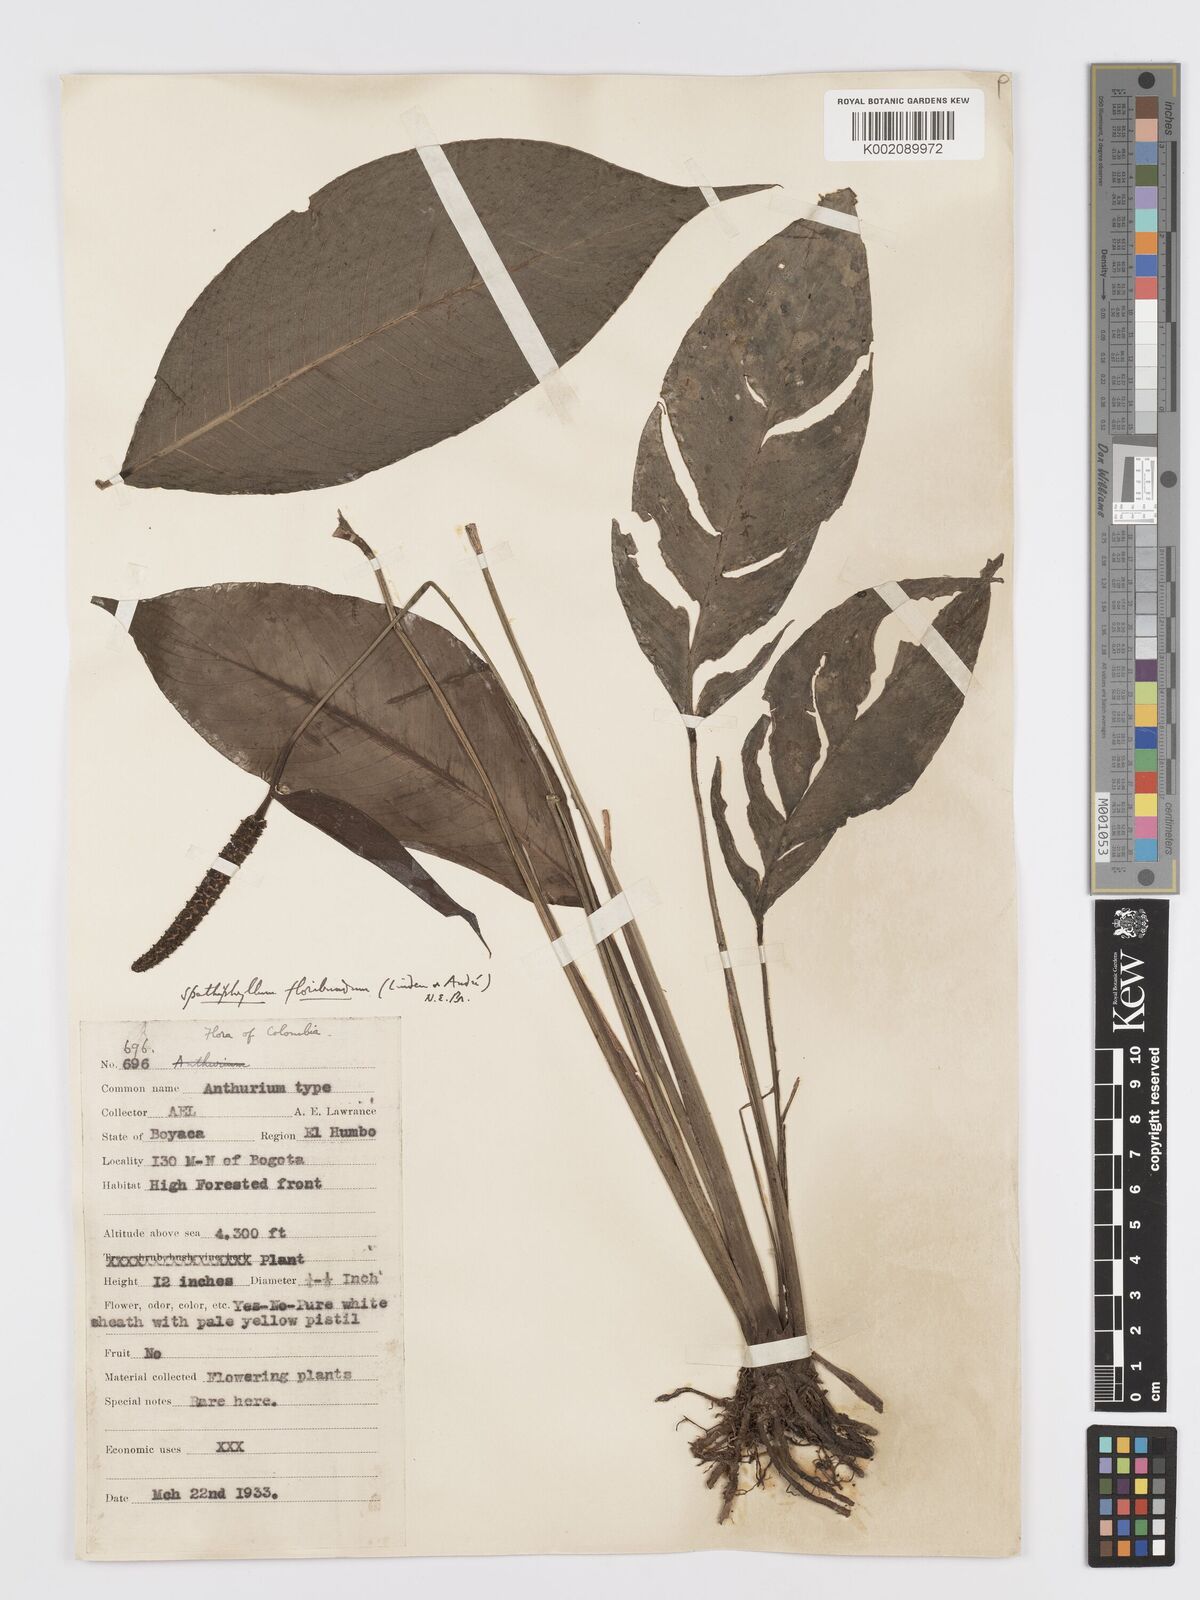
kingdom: Plantae
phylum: Tracheophyta
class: Liliopsida
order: Alismatales
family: Araceae
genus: Spathiphyllum
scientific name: Spathiphyllum floribundum
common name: Peace-lily
